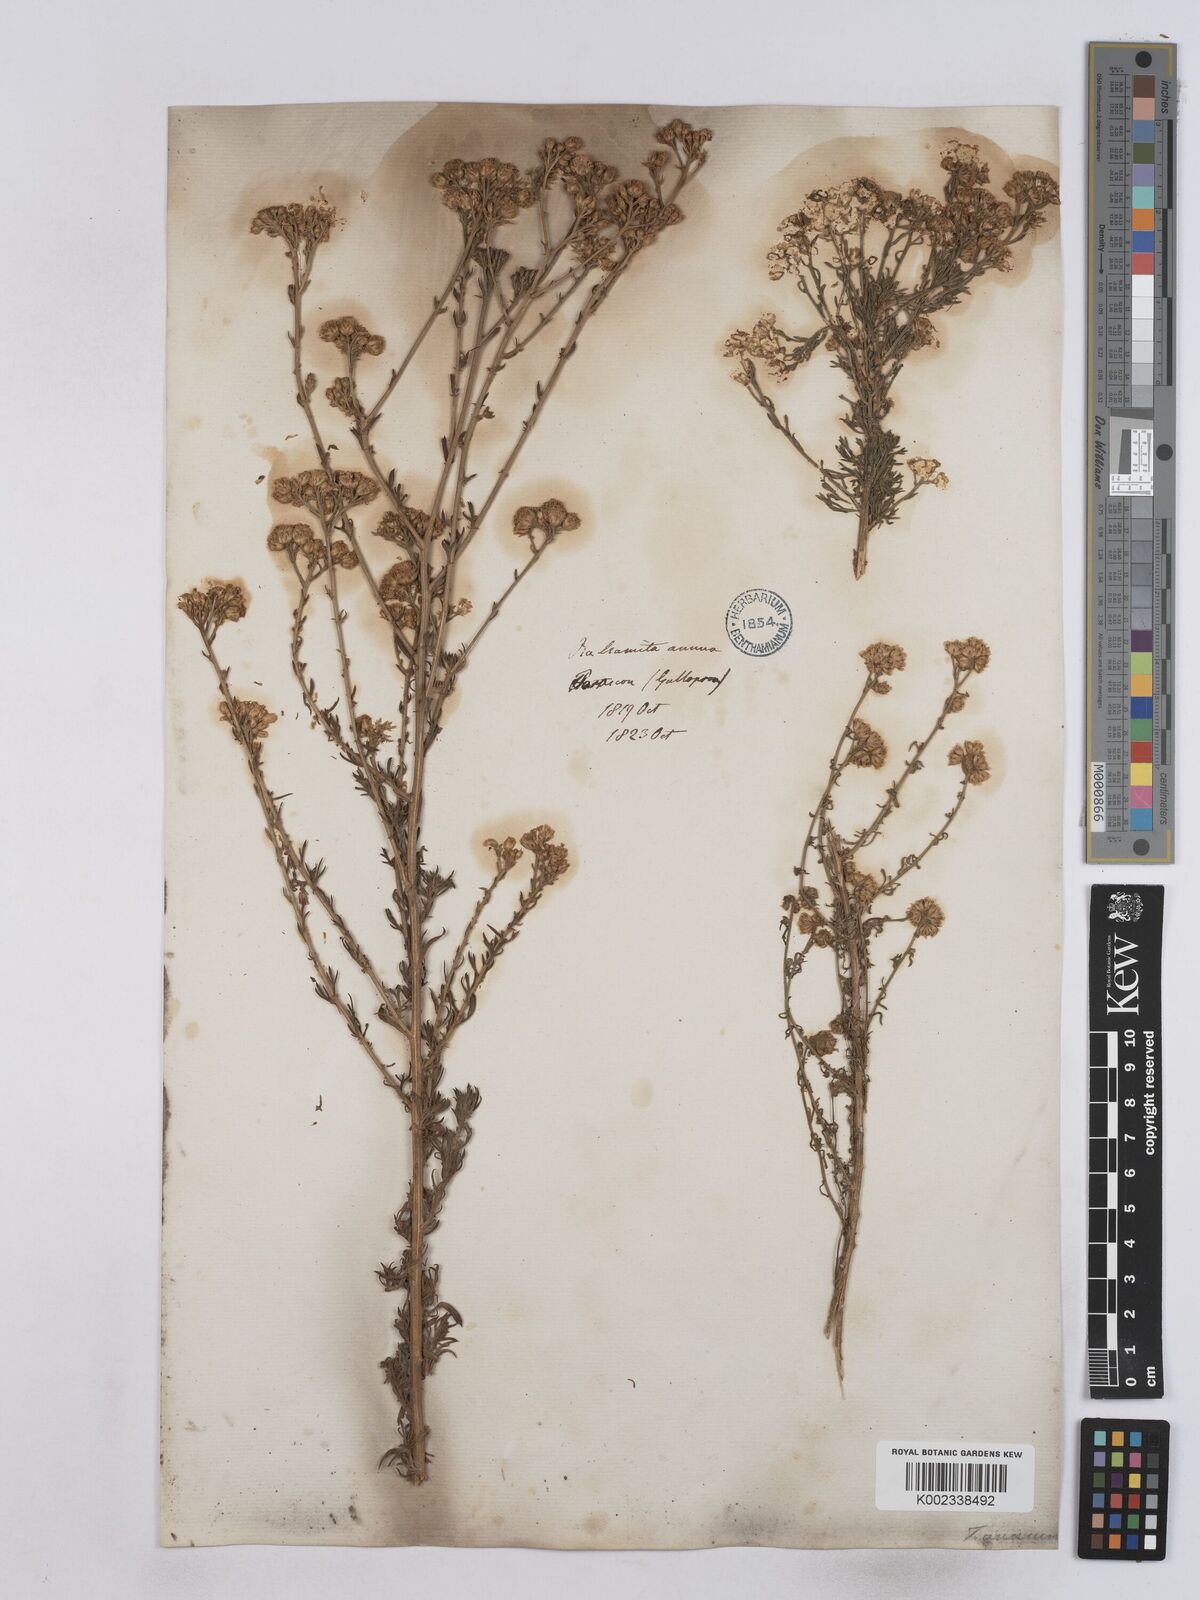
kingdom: Plantae
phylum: Tracheophyta
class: Magnoliopsida
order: Asterales
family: Asteraceae
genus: Vogtia
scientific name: Vogtia annua
